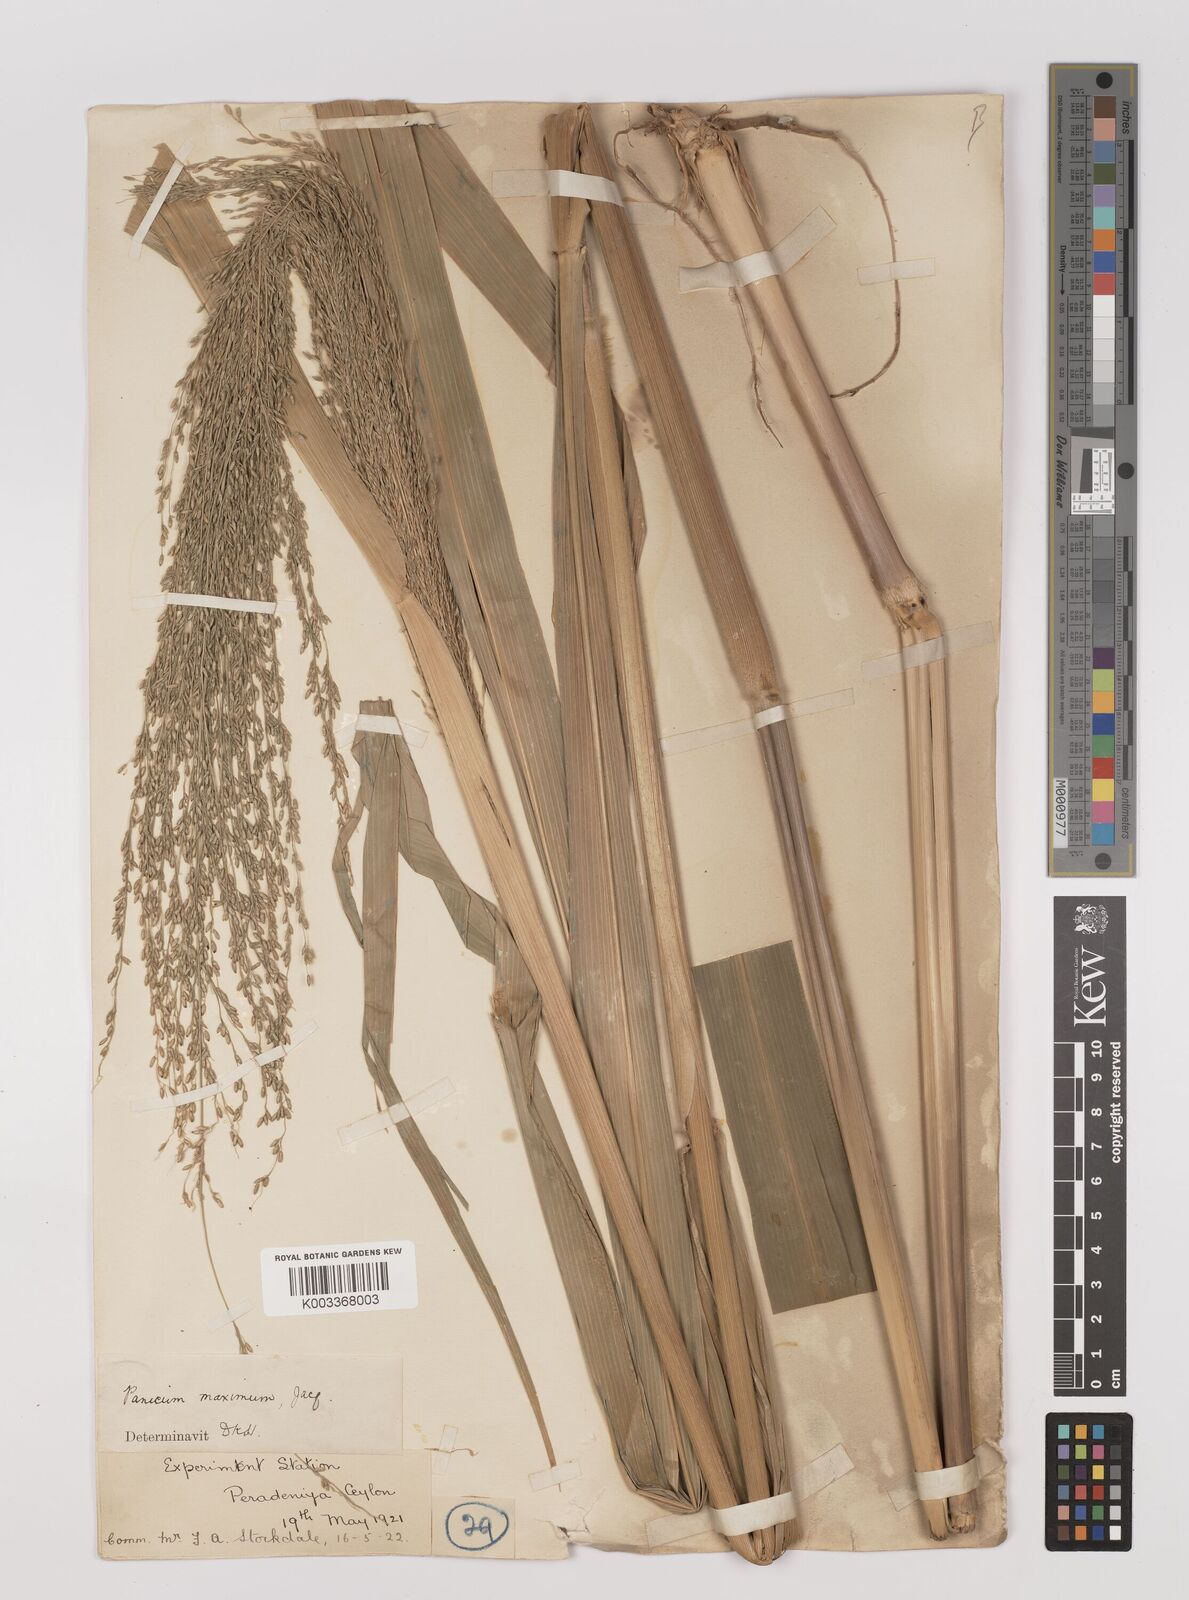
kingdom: Plantae
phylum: Tracheophyta
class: Liliopsida
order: Poales
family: Poaceae
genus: Megathyrsus
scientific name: Megathyrsus maximus
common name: Guineagrass
